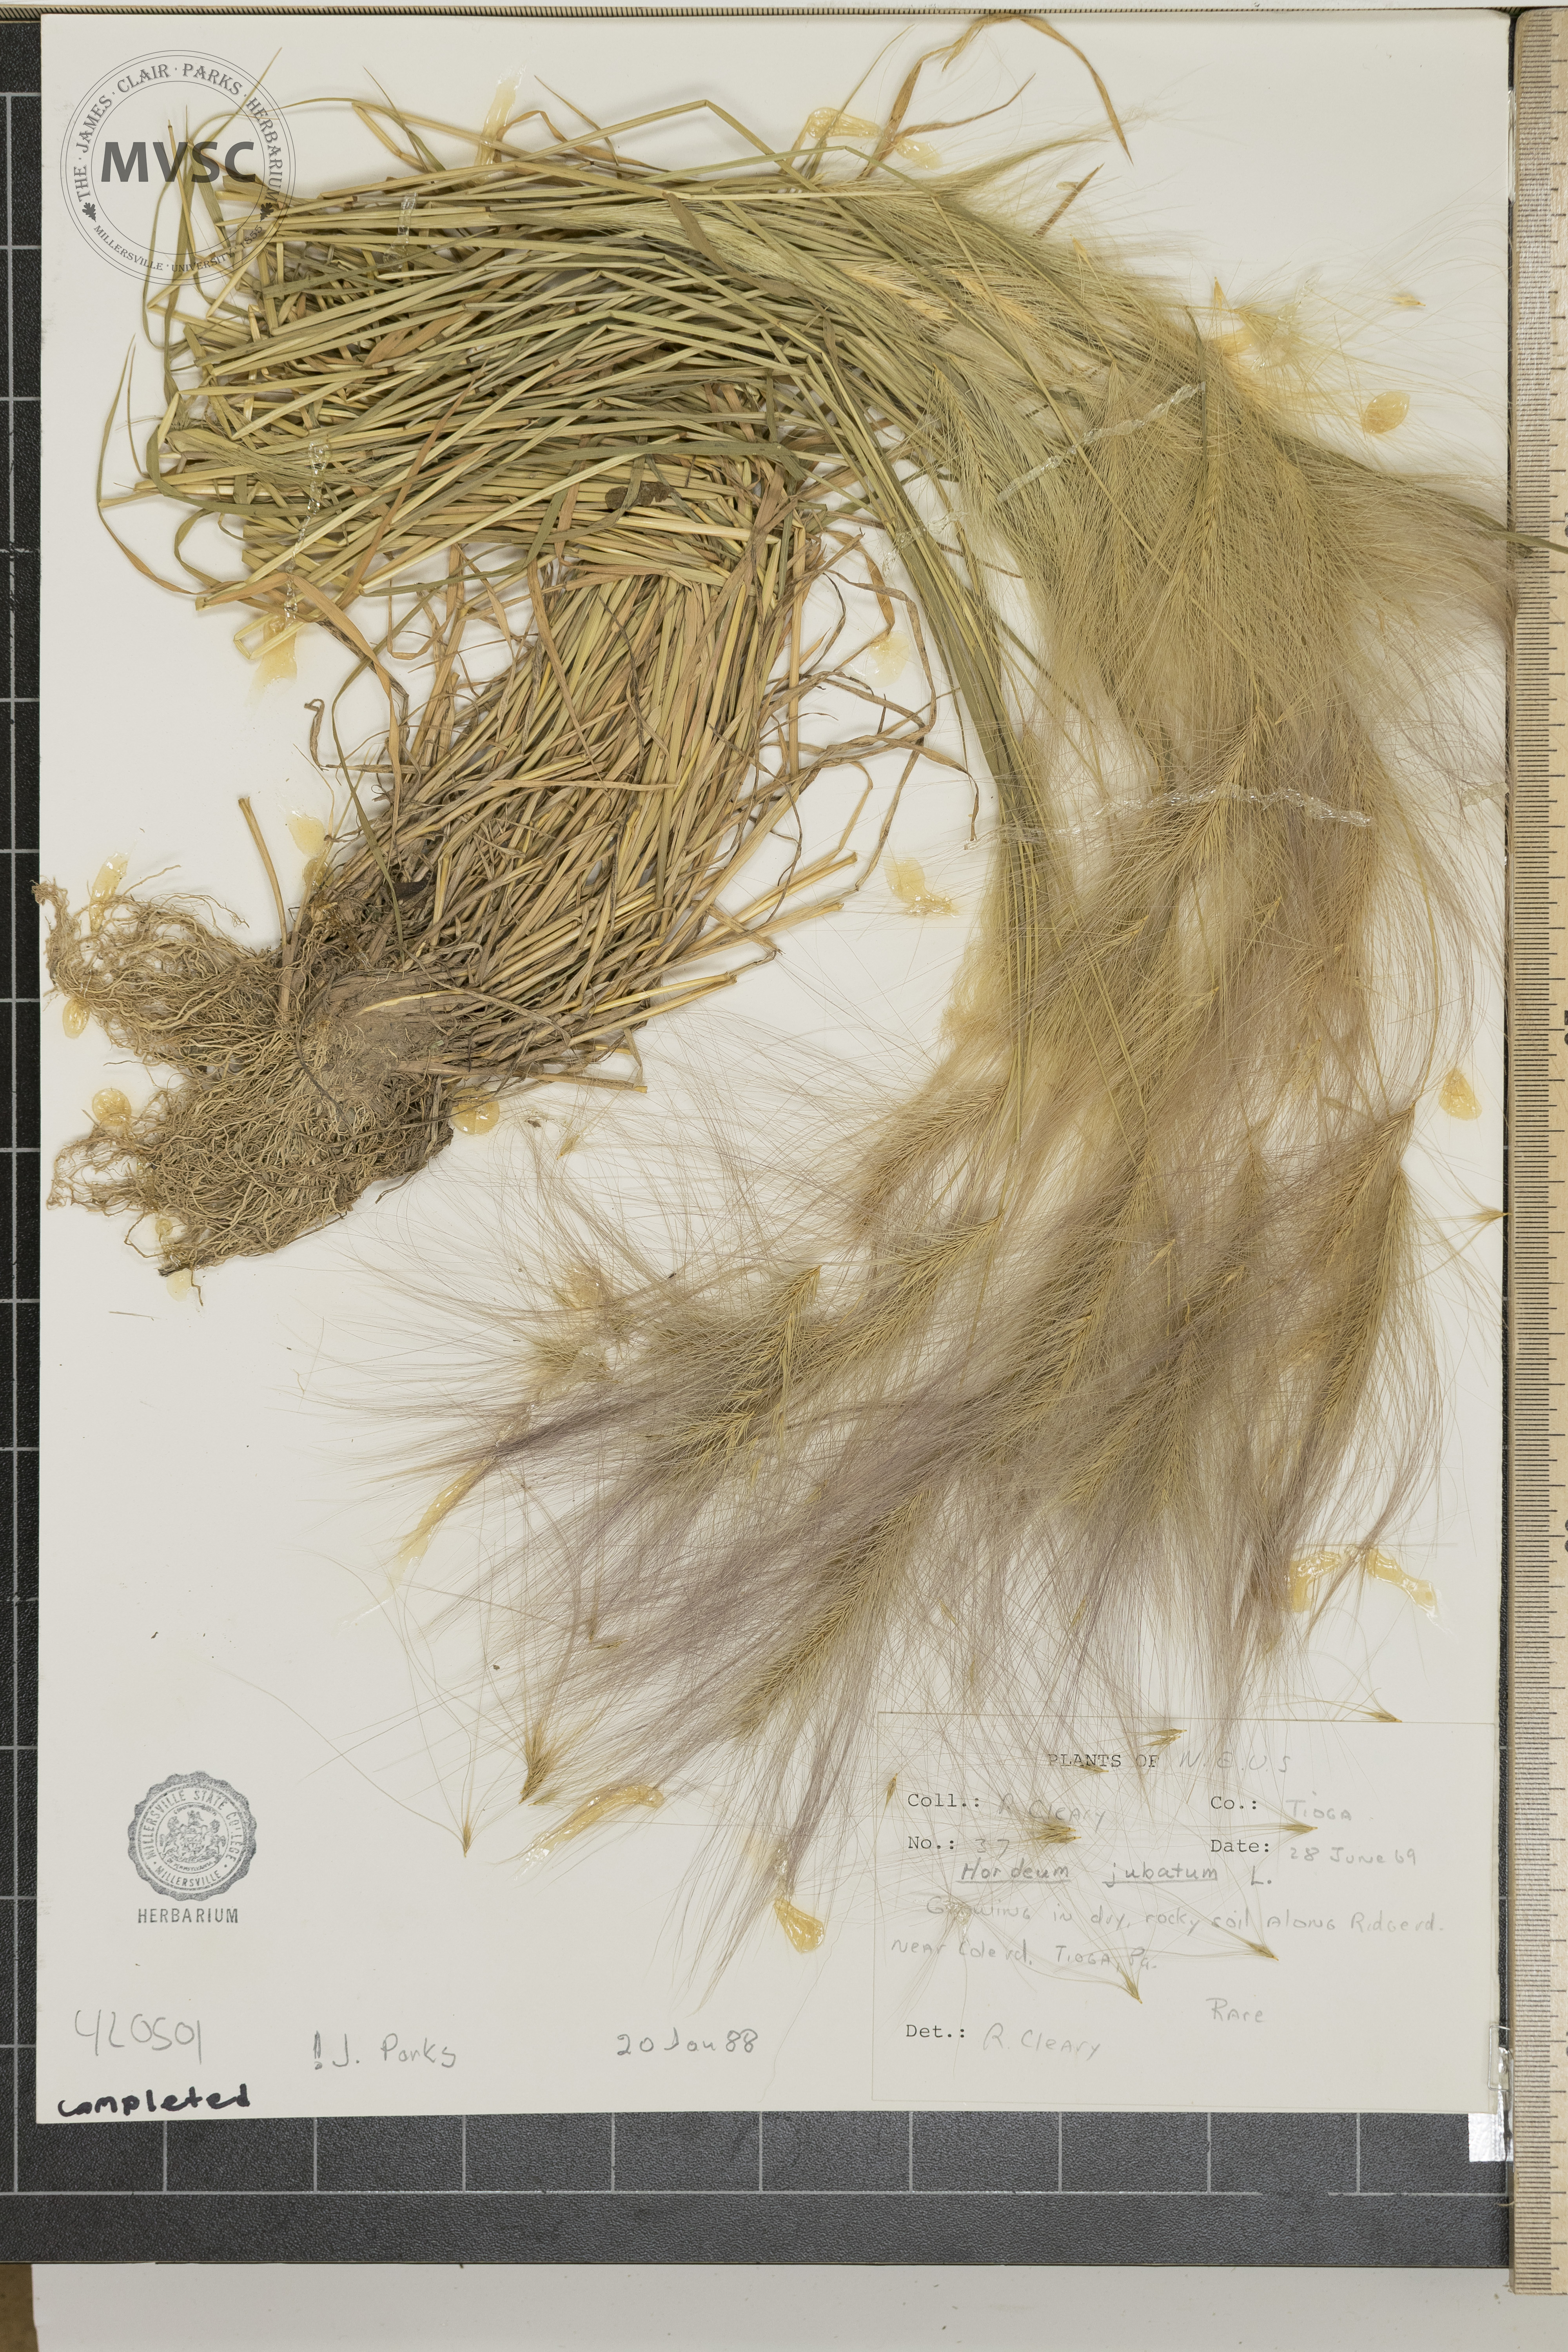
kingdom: Plantae
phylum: Tracheophyta
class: Liliopsida
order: Poales
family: Poaceae
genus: Hordeum
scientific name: Hordeum jubatum
